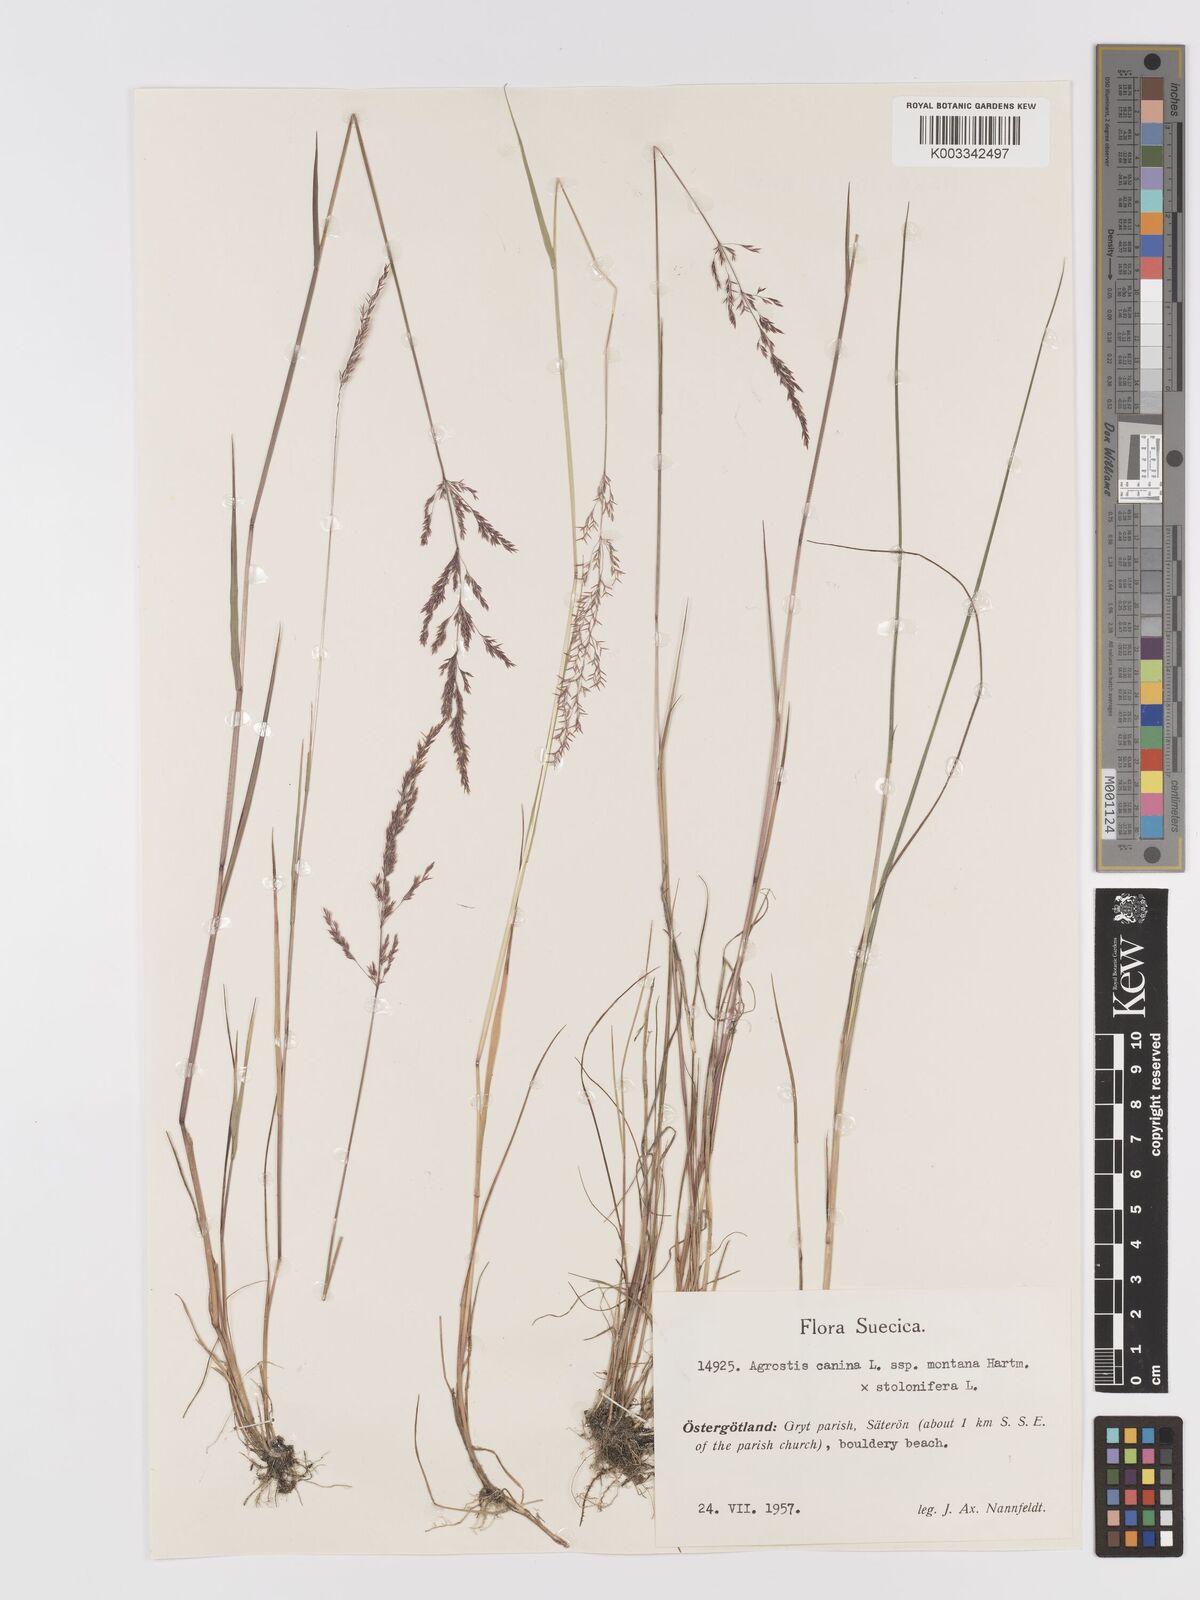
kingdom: Plantae
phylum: Tracheophyta
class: Liliopsida
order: Poales
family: Poaceae
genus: Agrostis
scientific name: Agrostis gigantea
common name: Black bent
